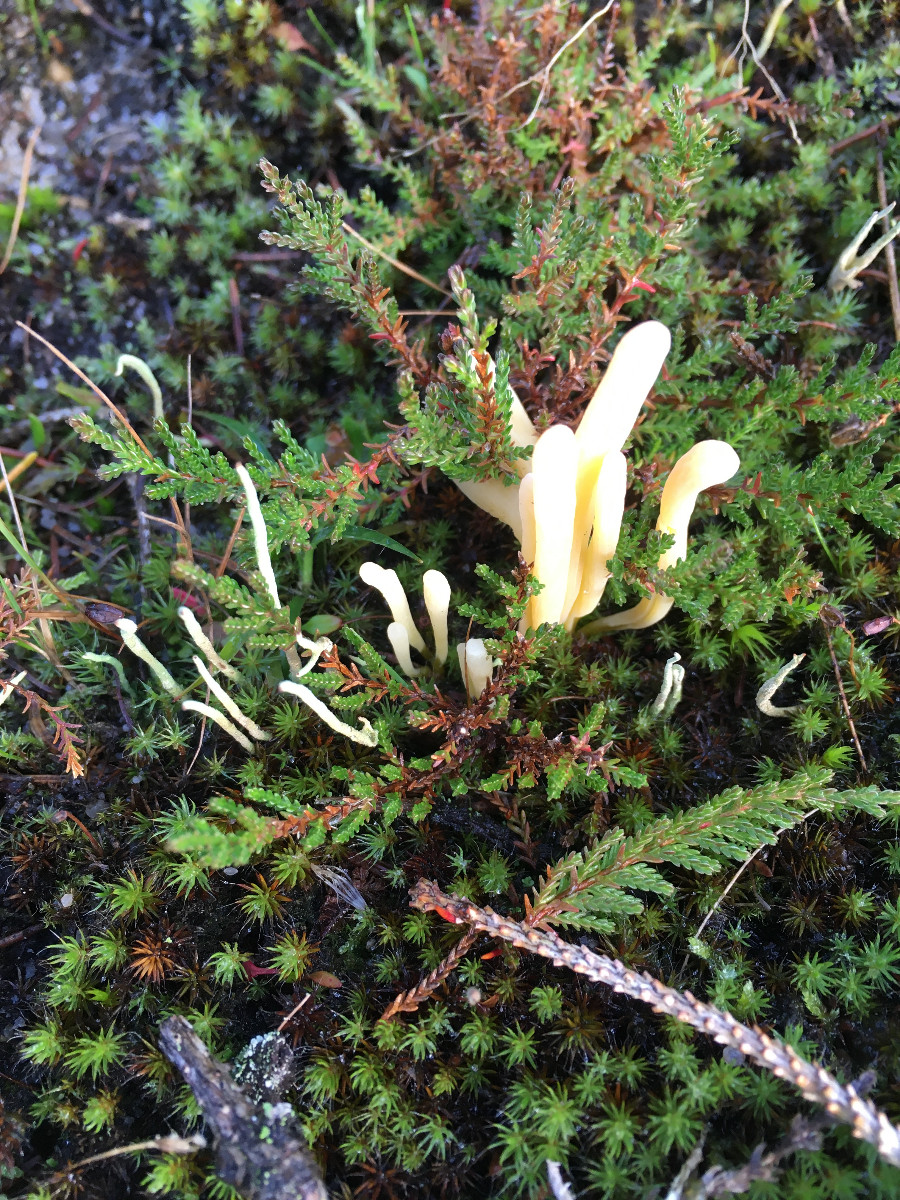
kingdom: Fungi
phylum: Basidiomycota
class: Agaricomycetes
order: Agaricales
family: Clavariaceae
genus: Clavaria
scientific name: Clavaria argillacea
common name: lerfarvet køllesvamp
